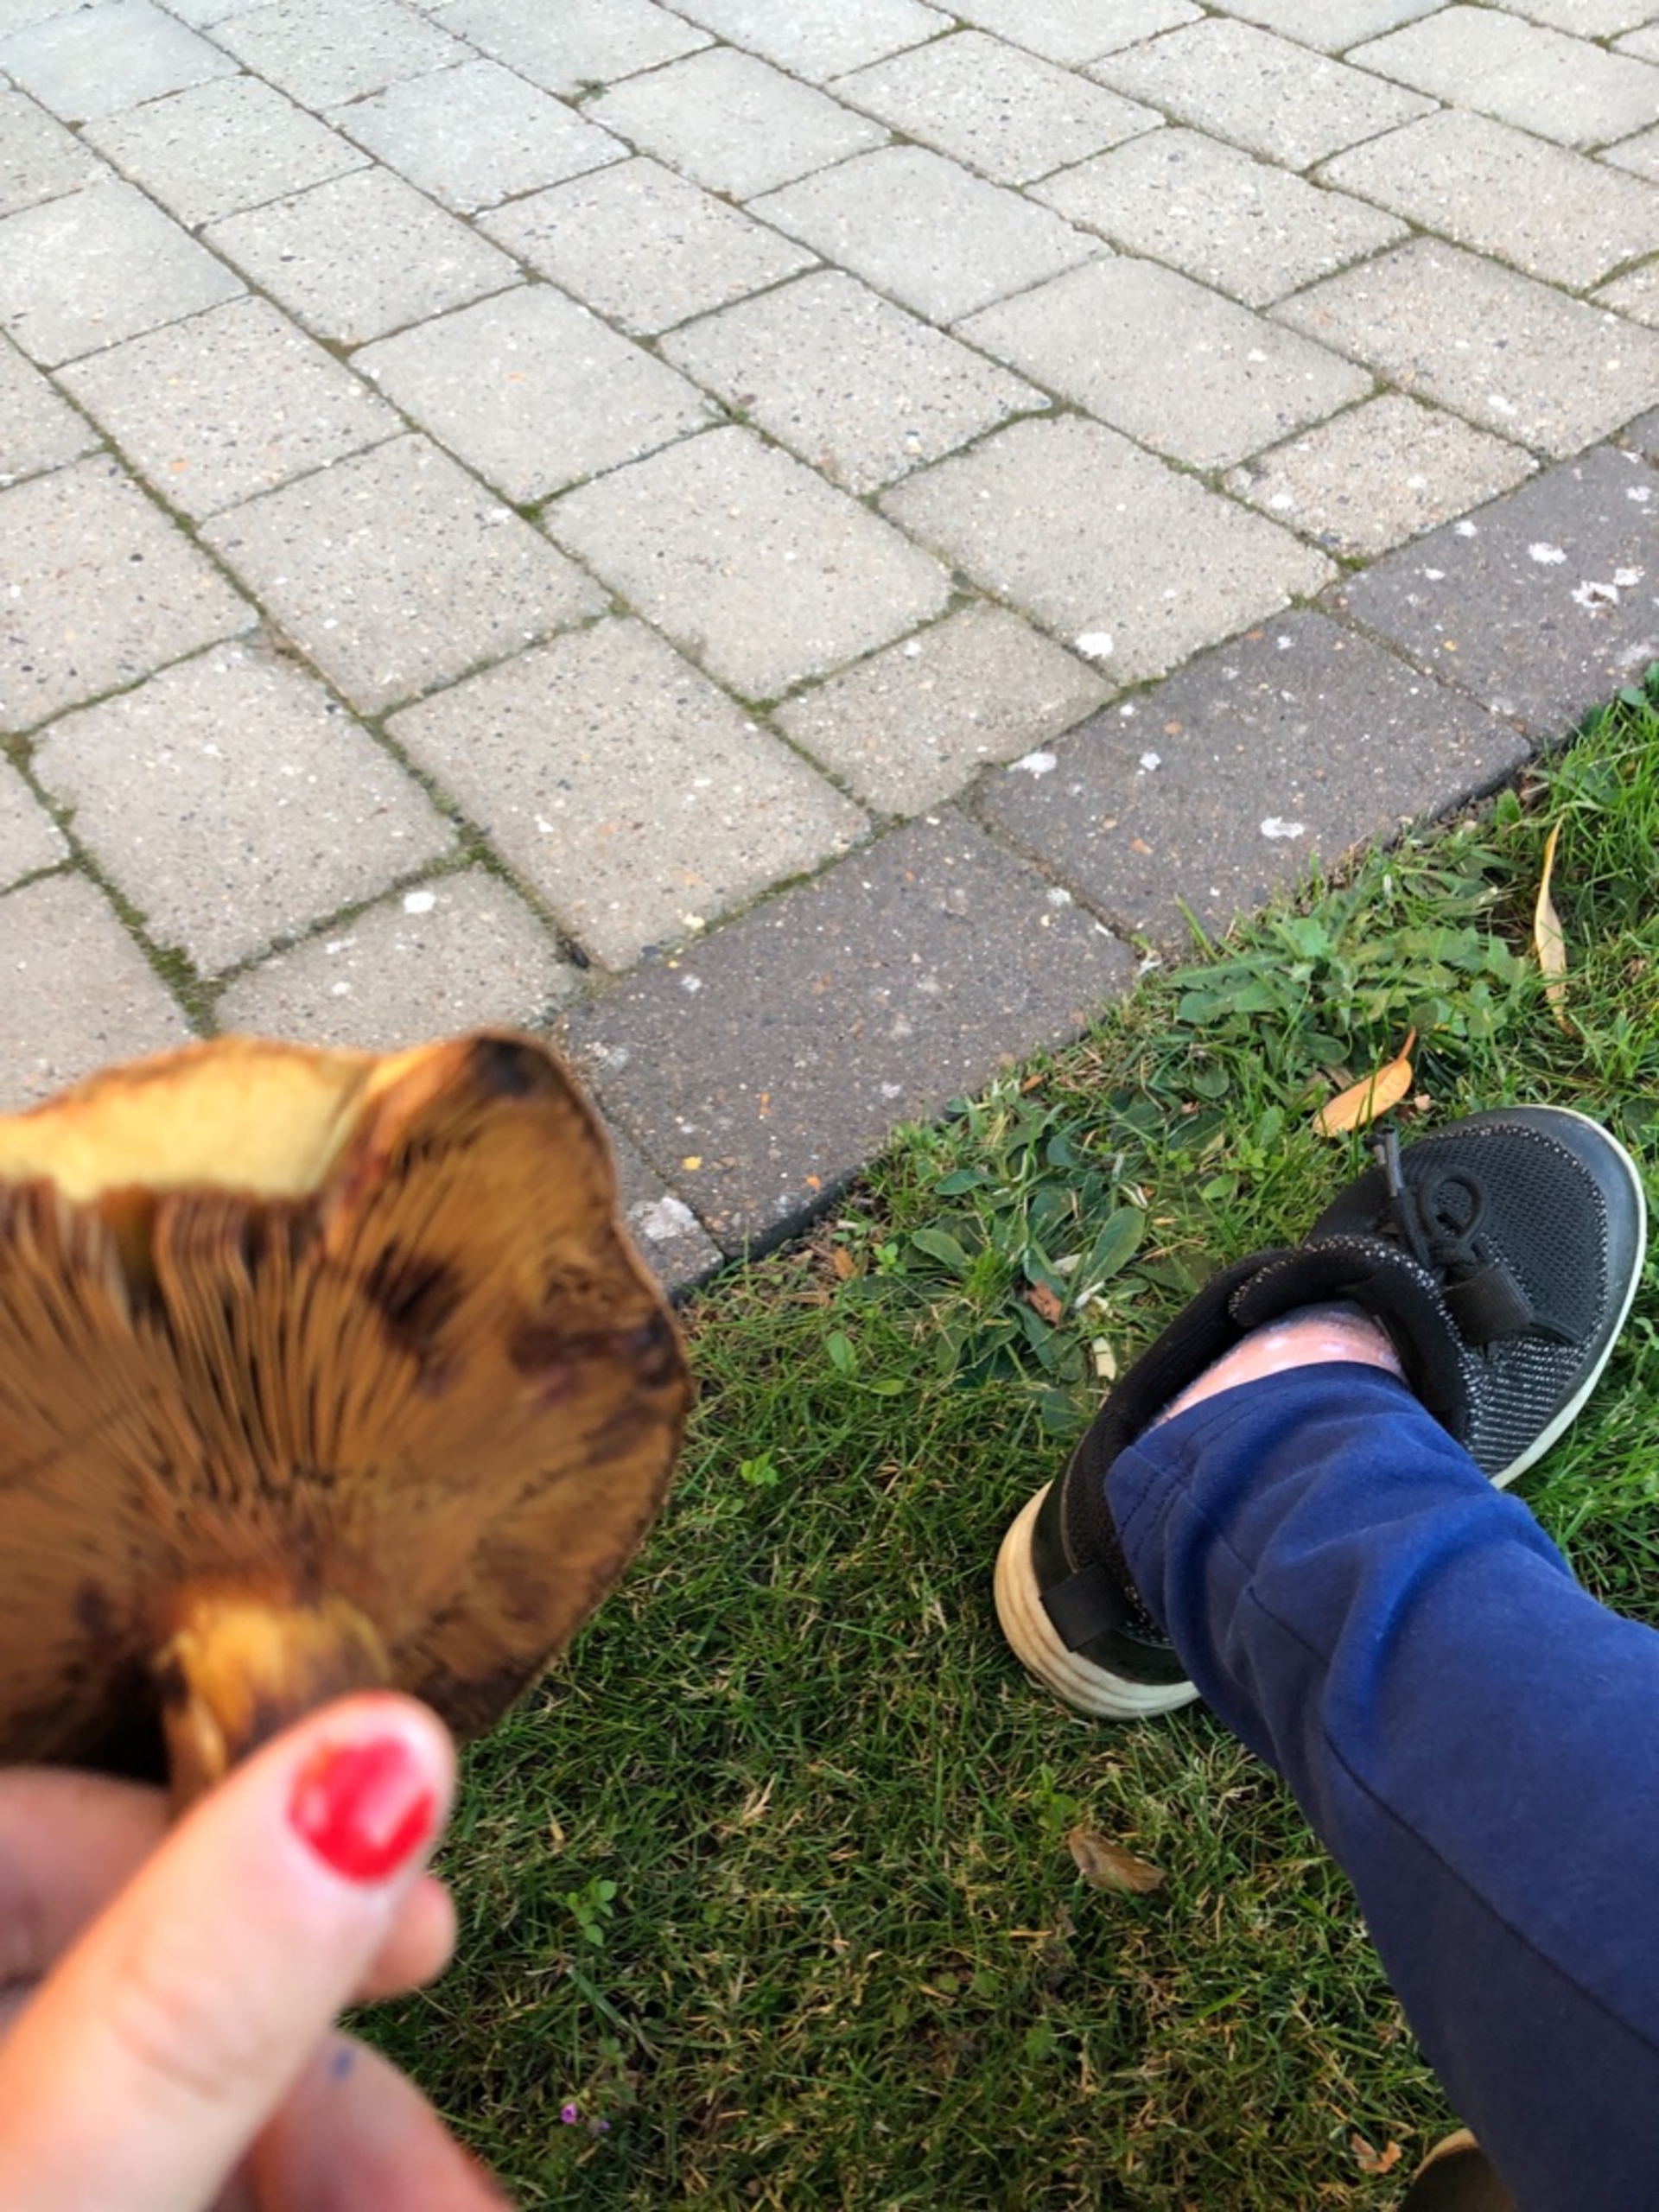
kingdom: Fungi
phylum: Basidiomycota
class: Agaricomycetes
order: Boletales
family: Paxillaceae
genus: Paxillus
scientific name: Paxillus
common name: Netbladhat
